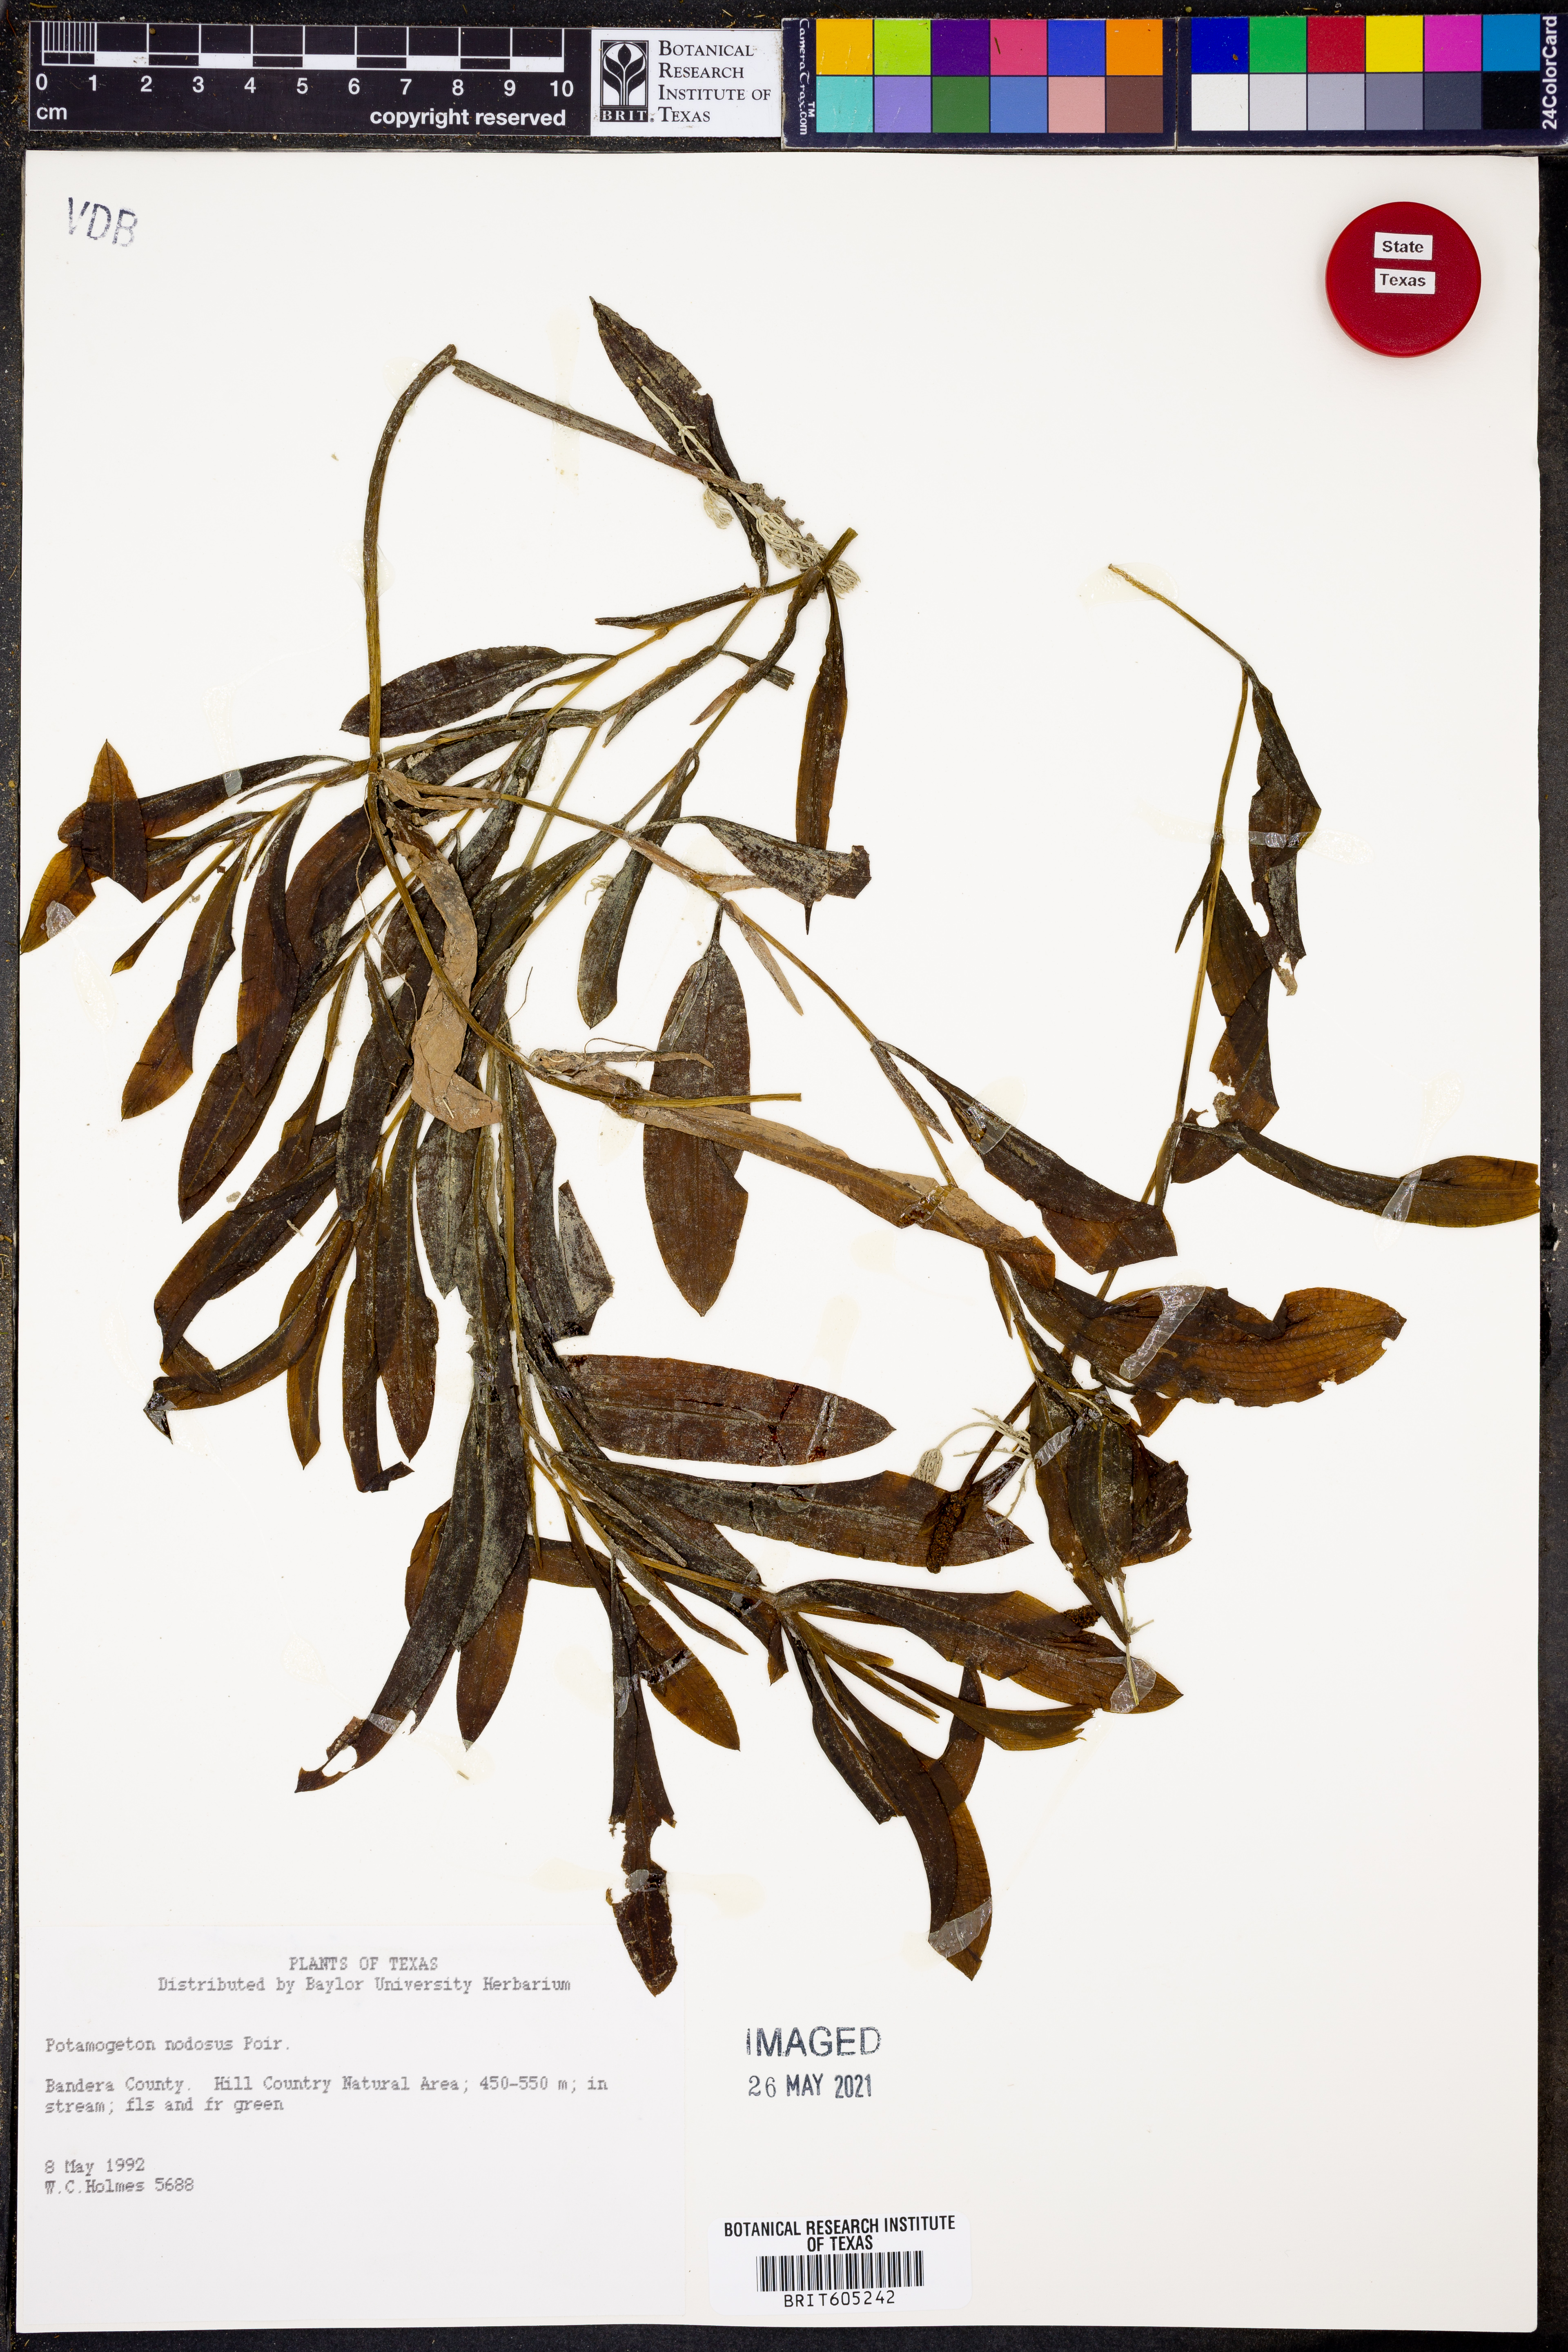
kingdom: Plantae
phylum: Tracheophyta
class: Liliopsida
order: Alismatales
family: Potamogetonaceae
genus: Potamogeton
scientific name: Potamogeton nodosus
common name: Loddon pondweed
